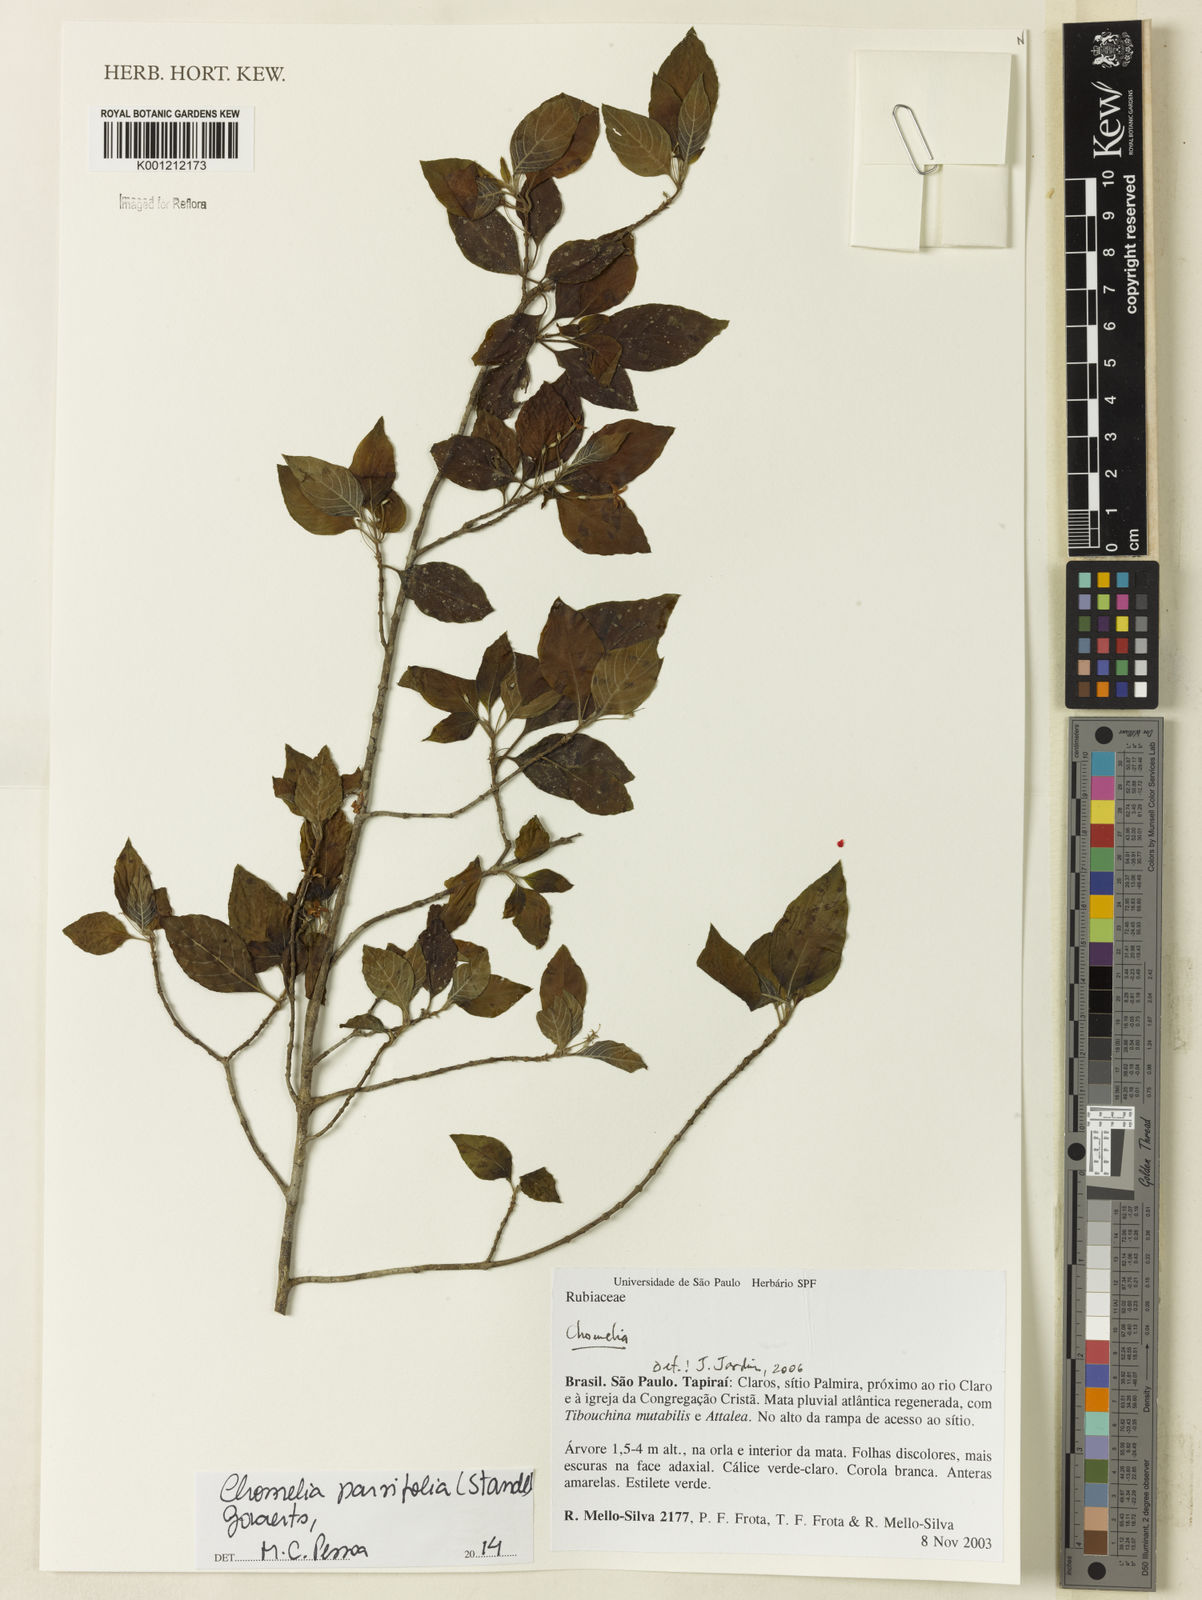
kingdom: Plantae
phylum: Tracheophyta
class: Magnoliopsida
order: Gentianales
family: Rubiaceae
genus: Chomelia
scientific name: Chomelia
